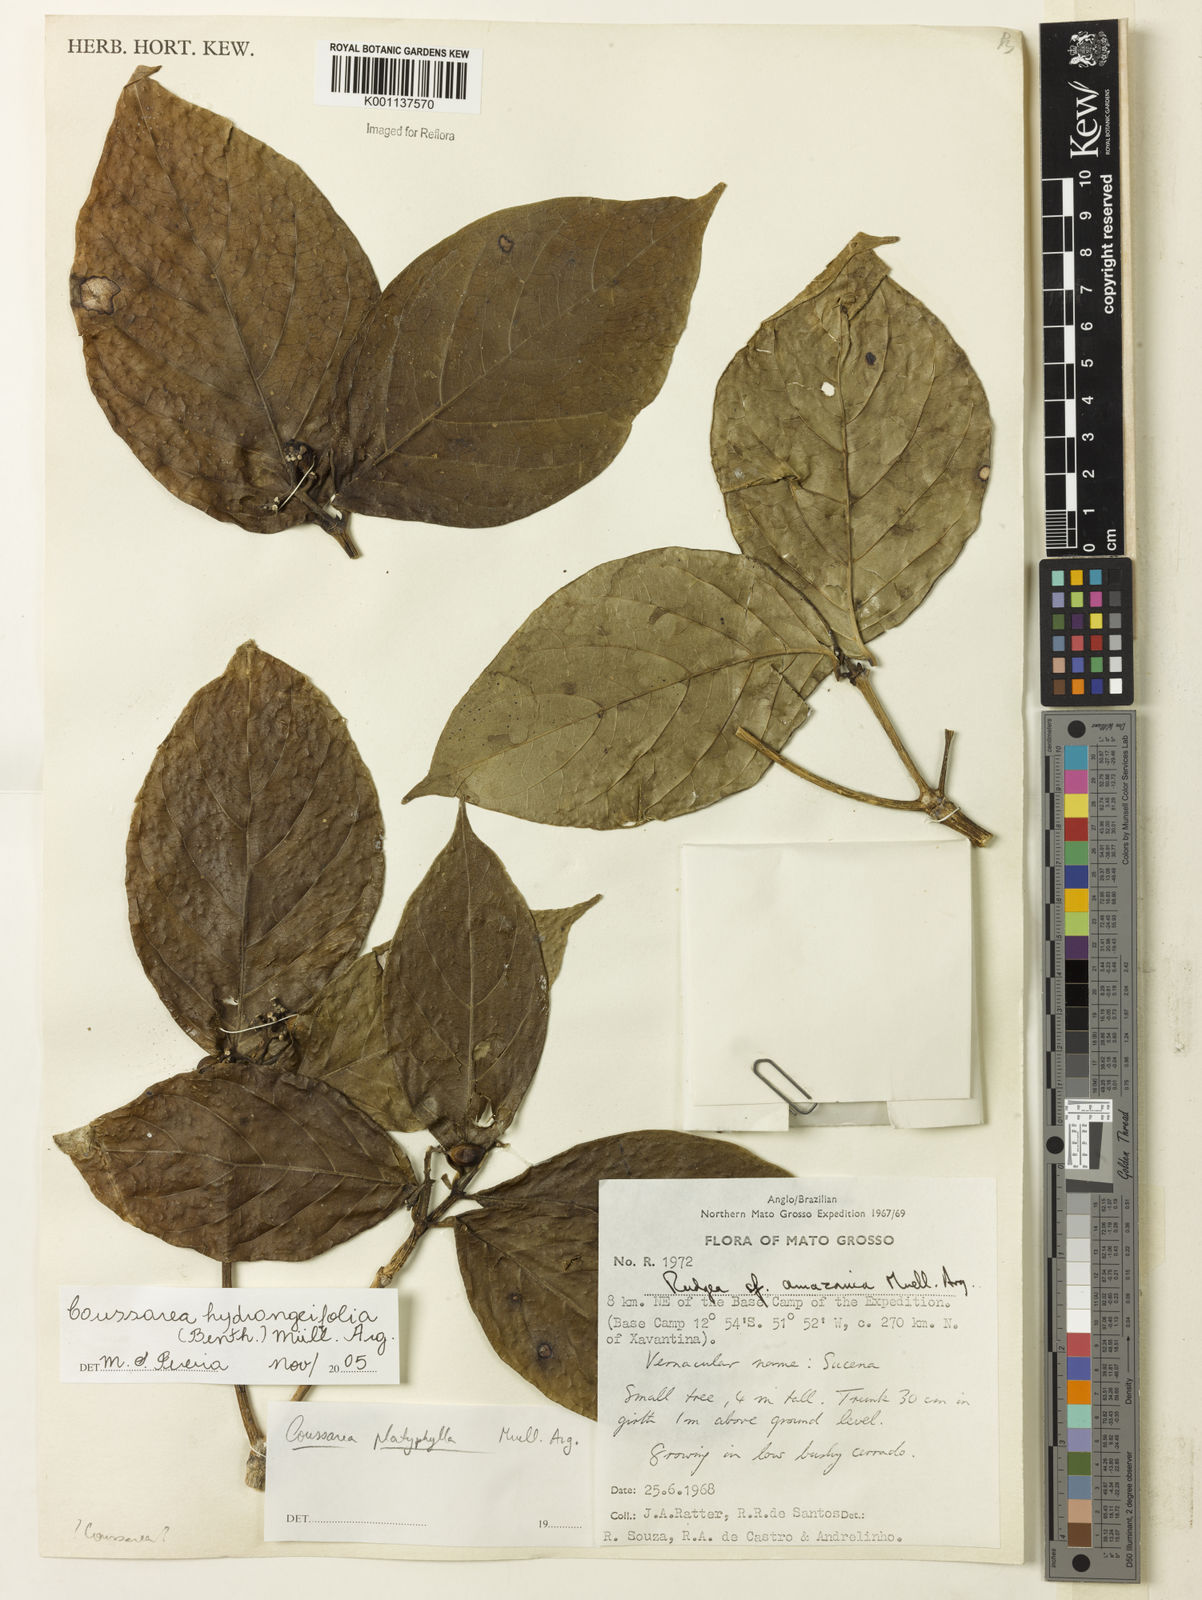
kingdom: Plantae
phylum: Tracheophyta
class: Magnoliopsida
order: Gentianales
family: Rubiaceae
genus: Coussarea
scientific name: Coussarea
